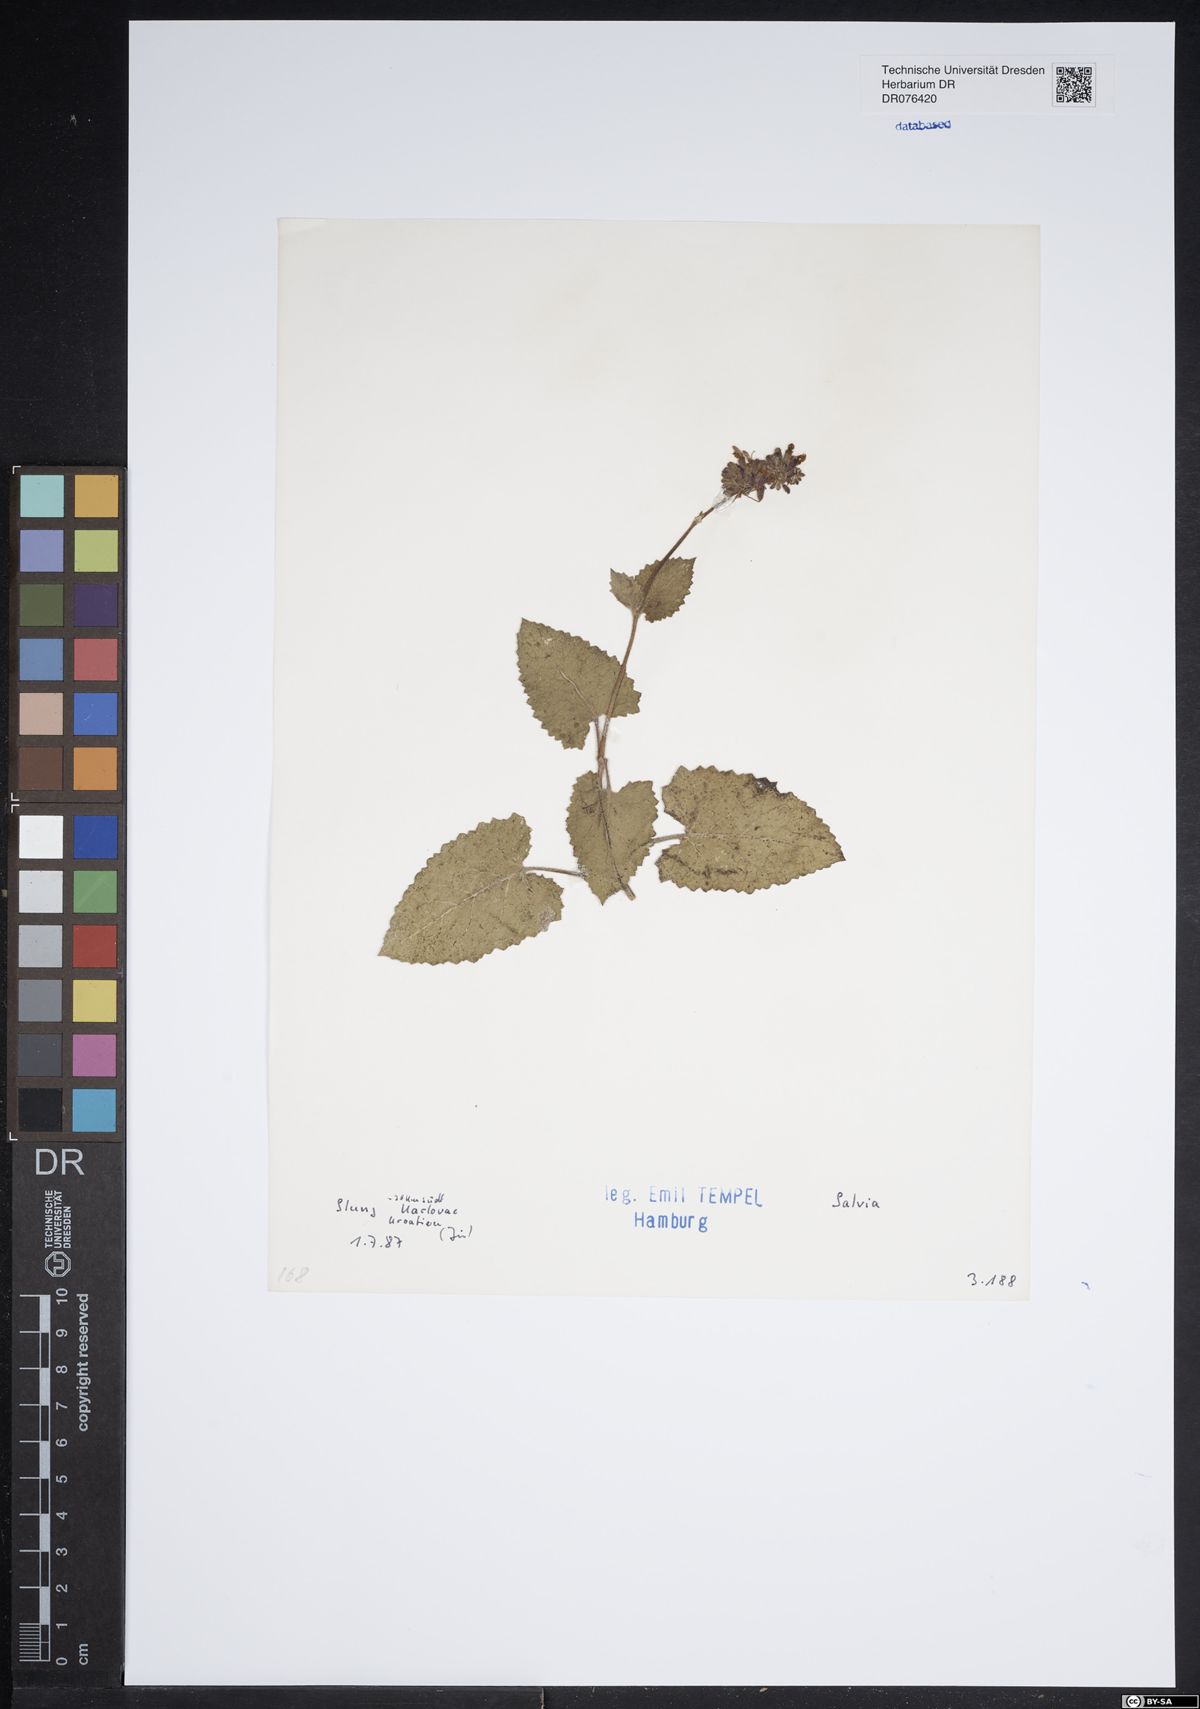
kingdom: Plantae
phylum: Tracheophyta
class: Magnoliopsida
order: Lamiales
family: Lamiaceae
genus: Salvia
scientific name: Salvia
